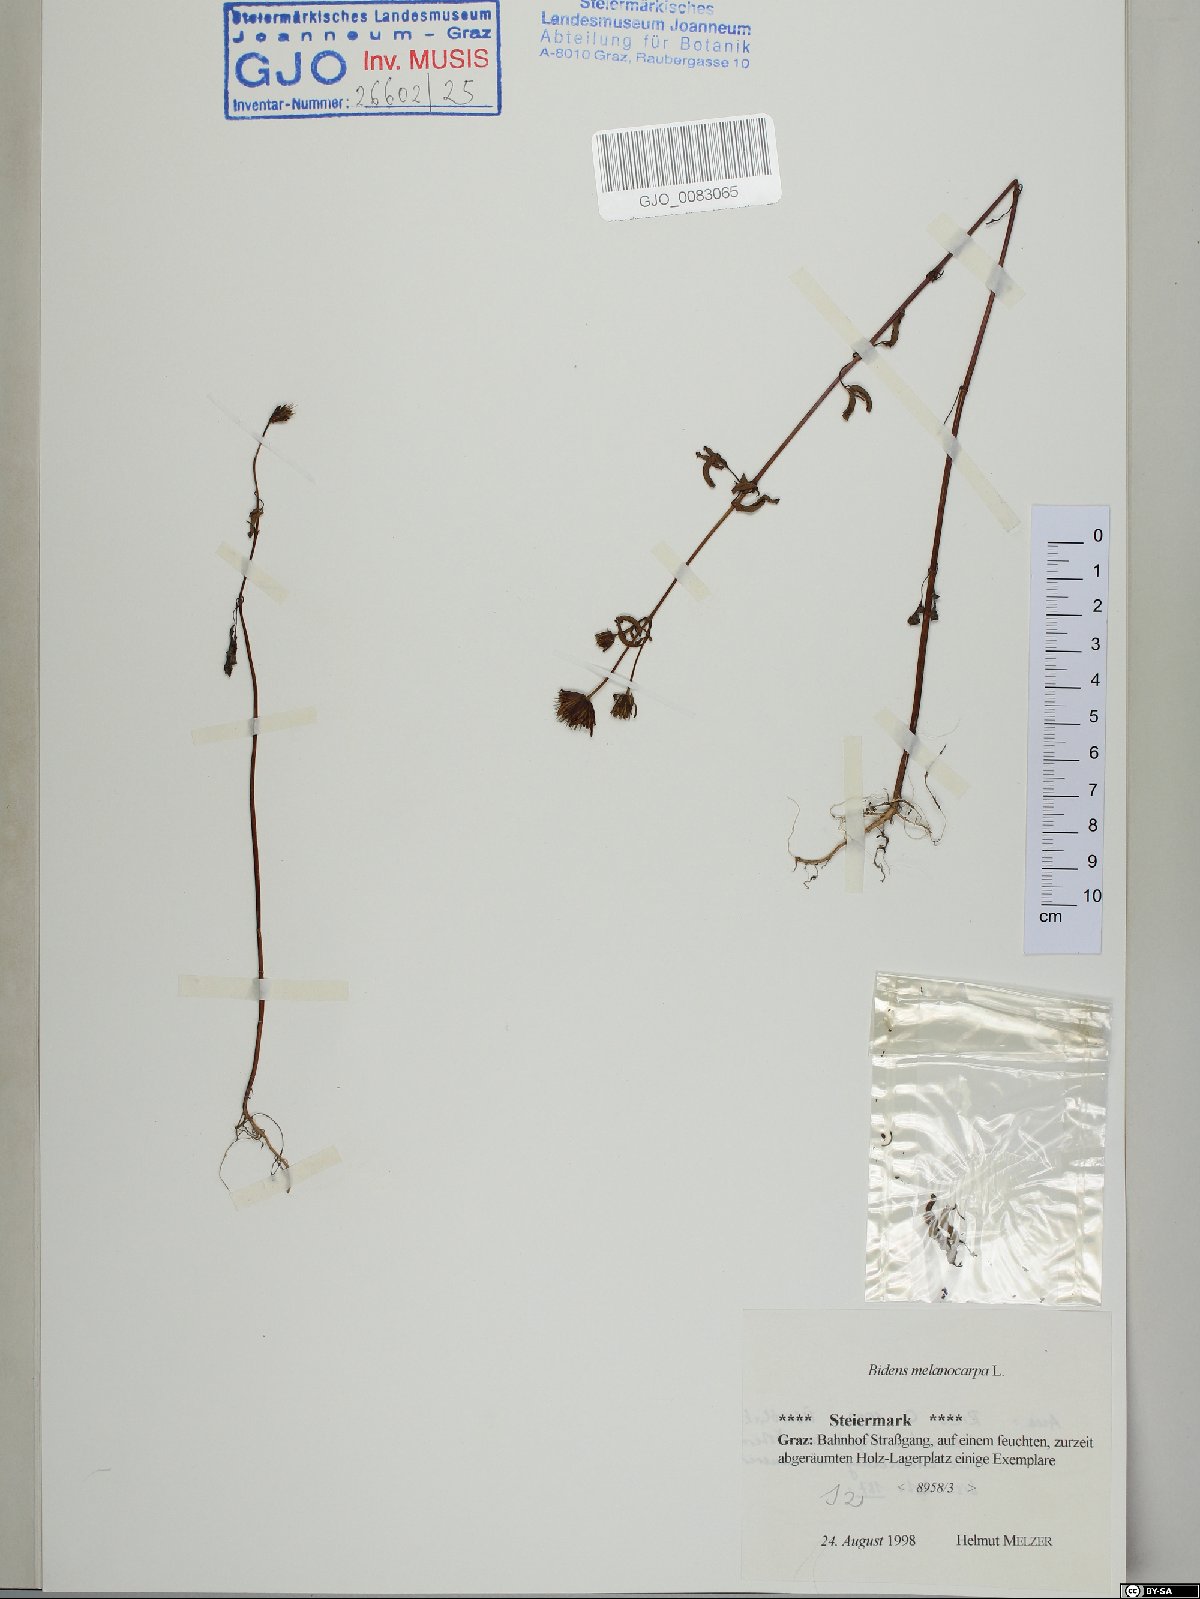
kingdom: Plantae
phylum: Tracheophyta
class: Magnoliopsida
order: Asterales
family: Asteraceae
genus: Bidens
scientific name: Bidens frondosa
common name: Beggarticks
